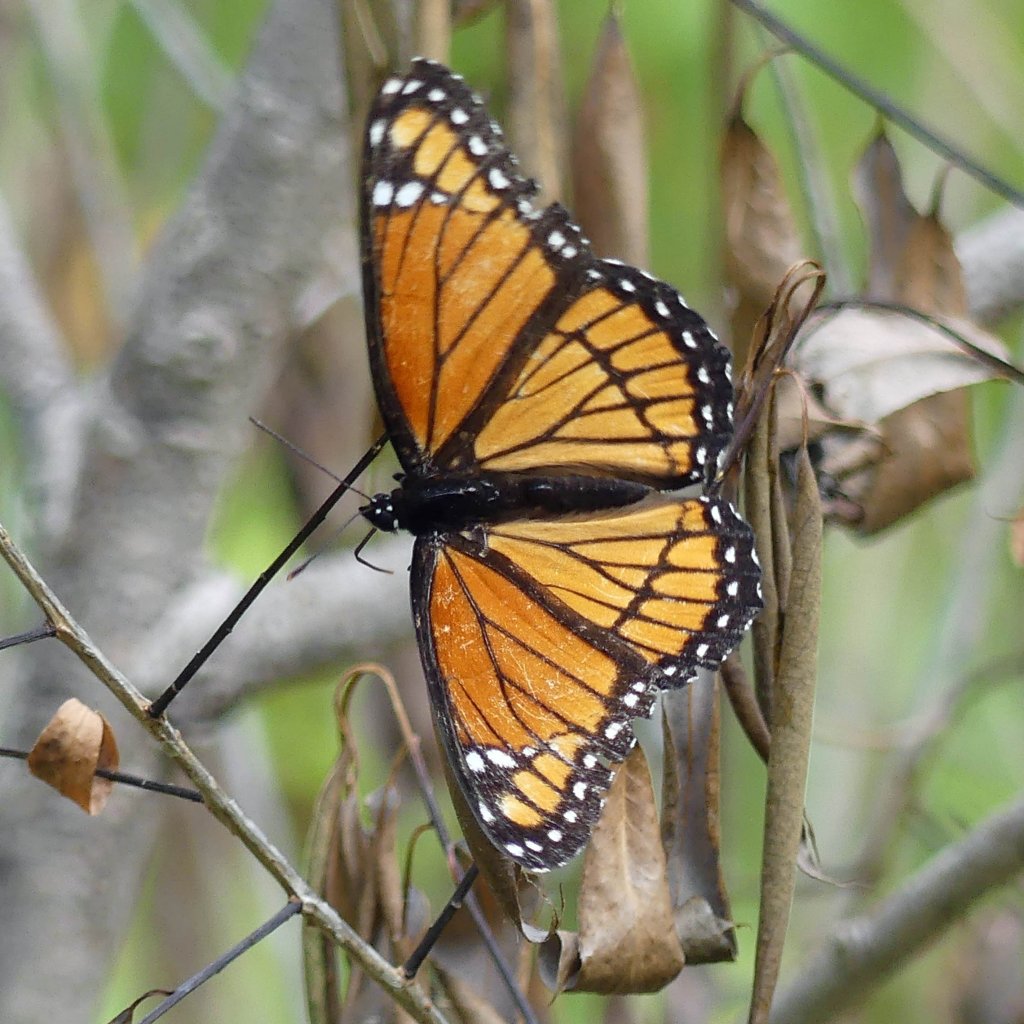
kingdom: Animalia
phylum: Arthropoda
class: Insecta
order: Lepidoptera
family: Nymphalidae
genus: Limenitis
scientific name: Limenitis archippus
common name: Viceroy
